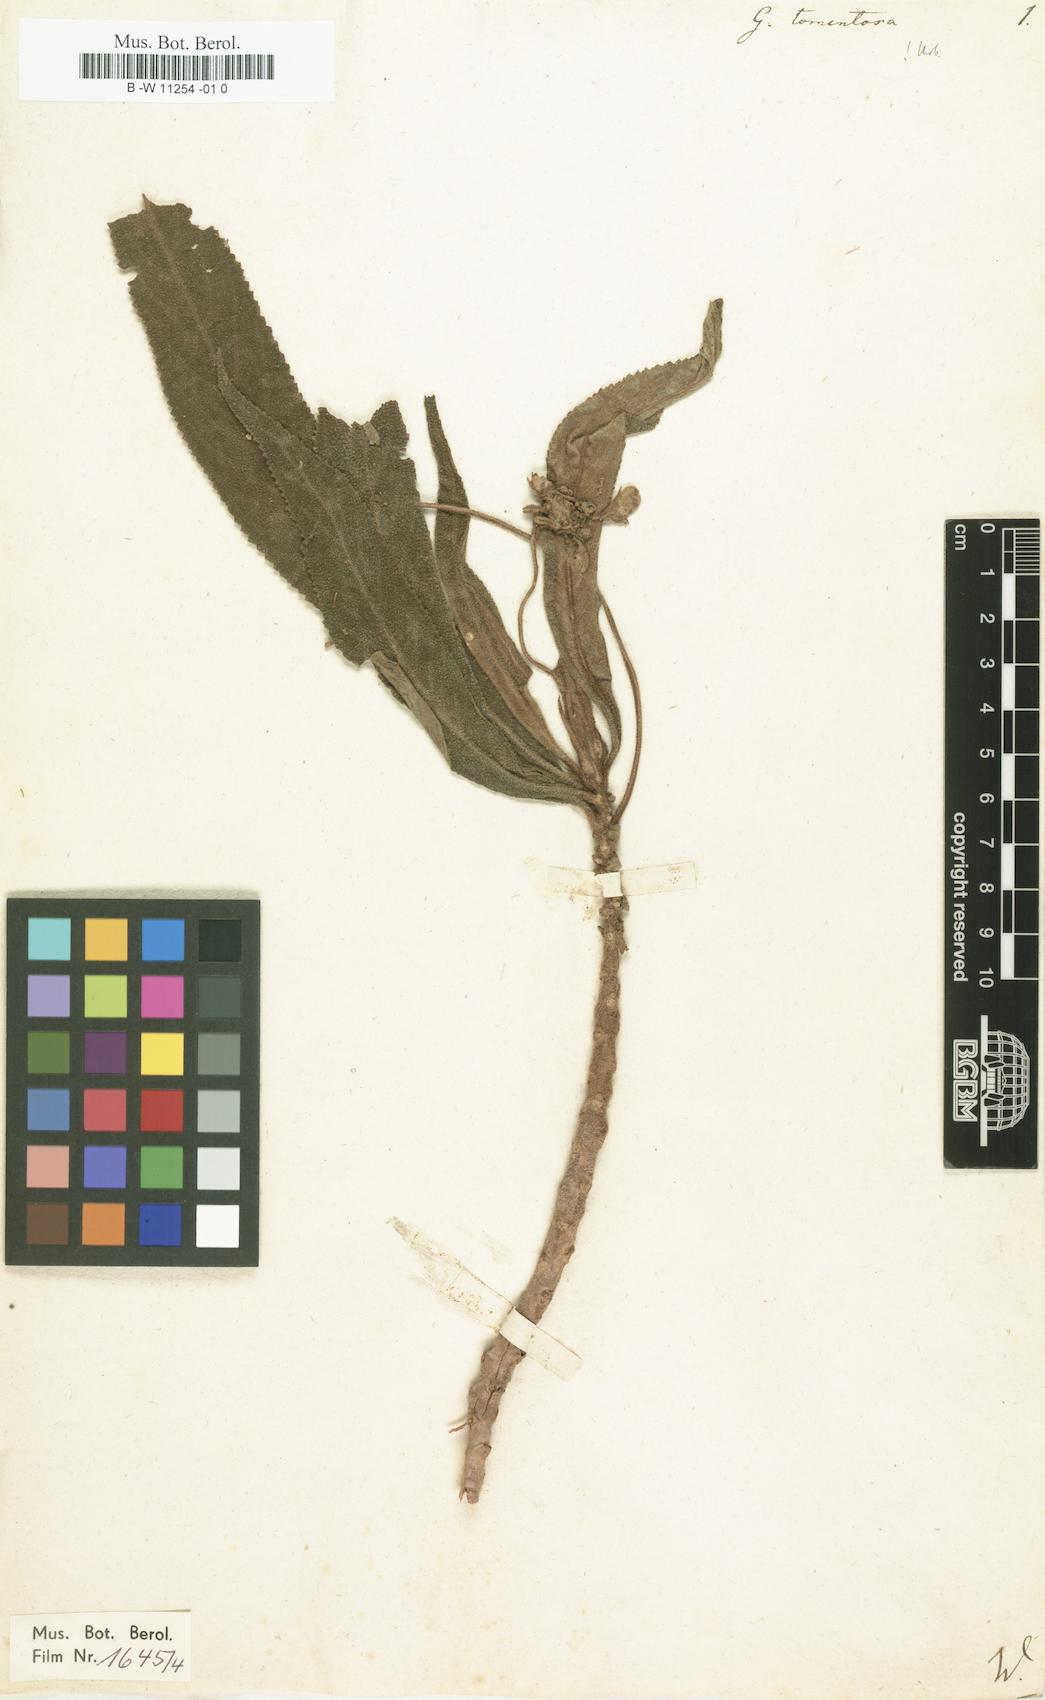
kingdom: Plantae
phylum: Tracheophyta
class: Magnoliopsida
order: Lamiales
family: Gesneriaceae
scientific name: Gesneriaceae
